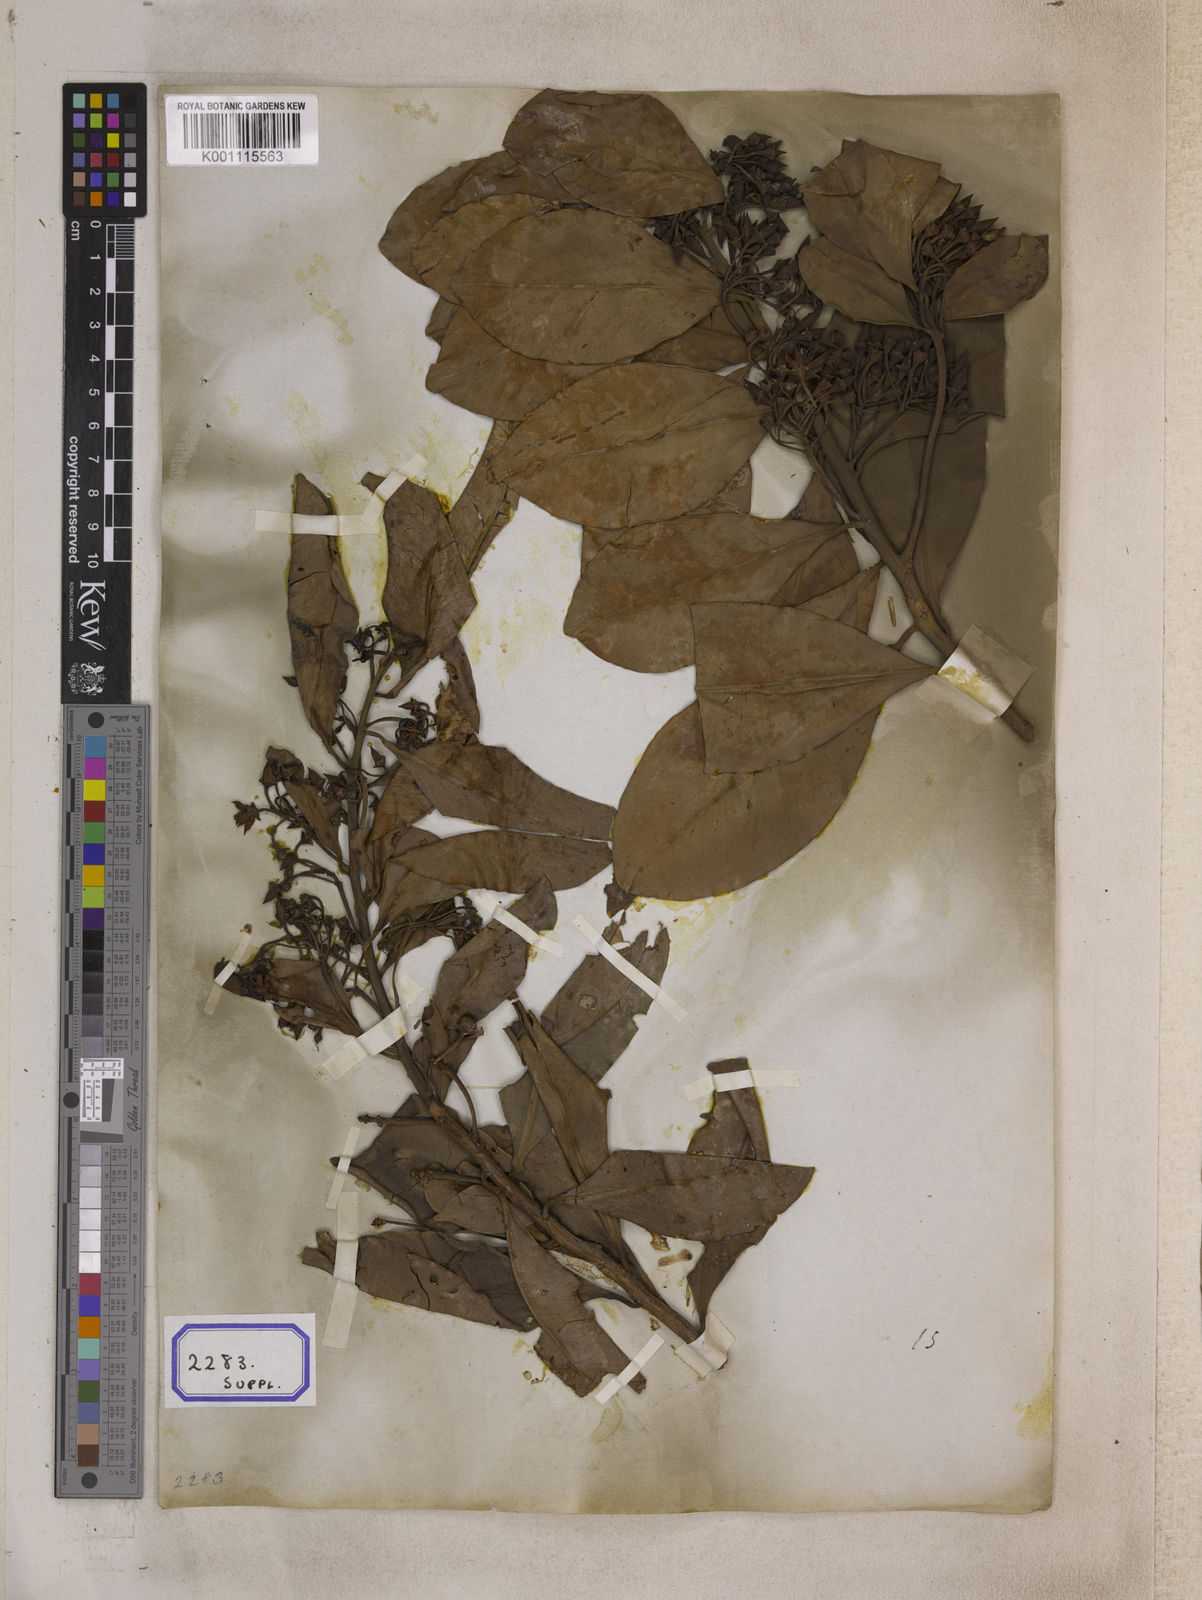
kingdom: Plantae
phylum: Tracheophyta
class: Magnoliopsida
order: Ericales
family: Primulaceae
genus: Ardisia
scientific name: Ardisia humilis
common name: Low shoebutton
